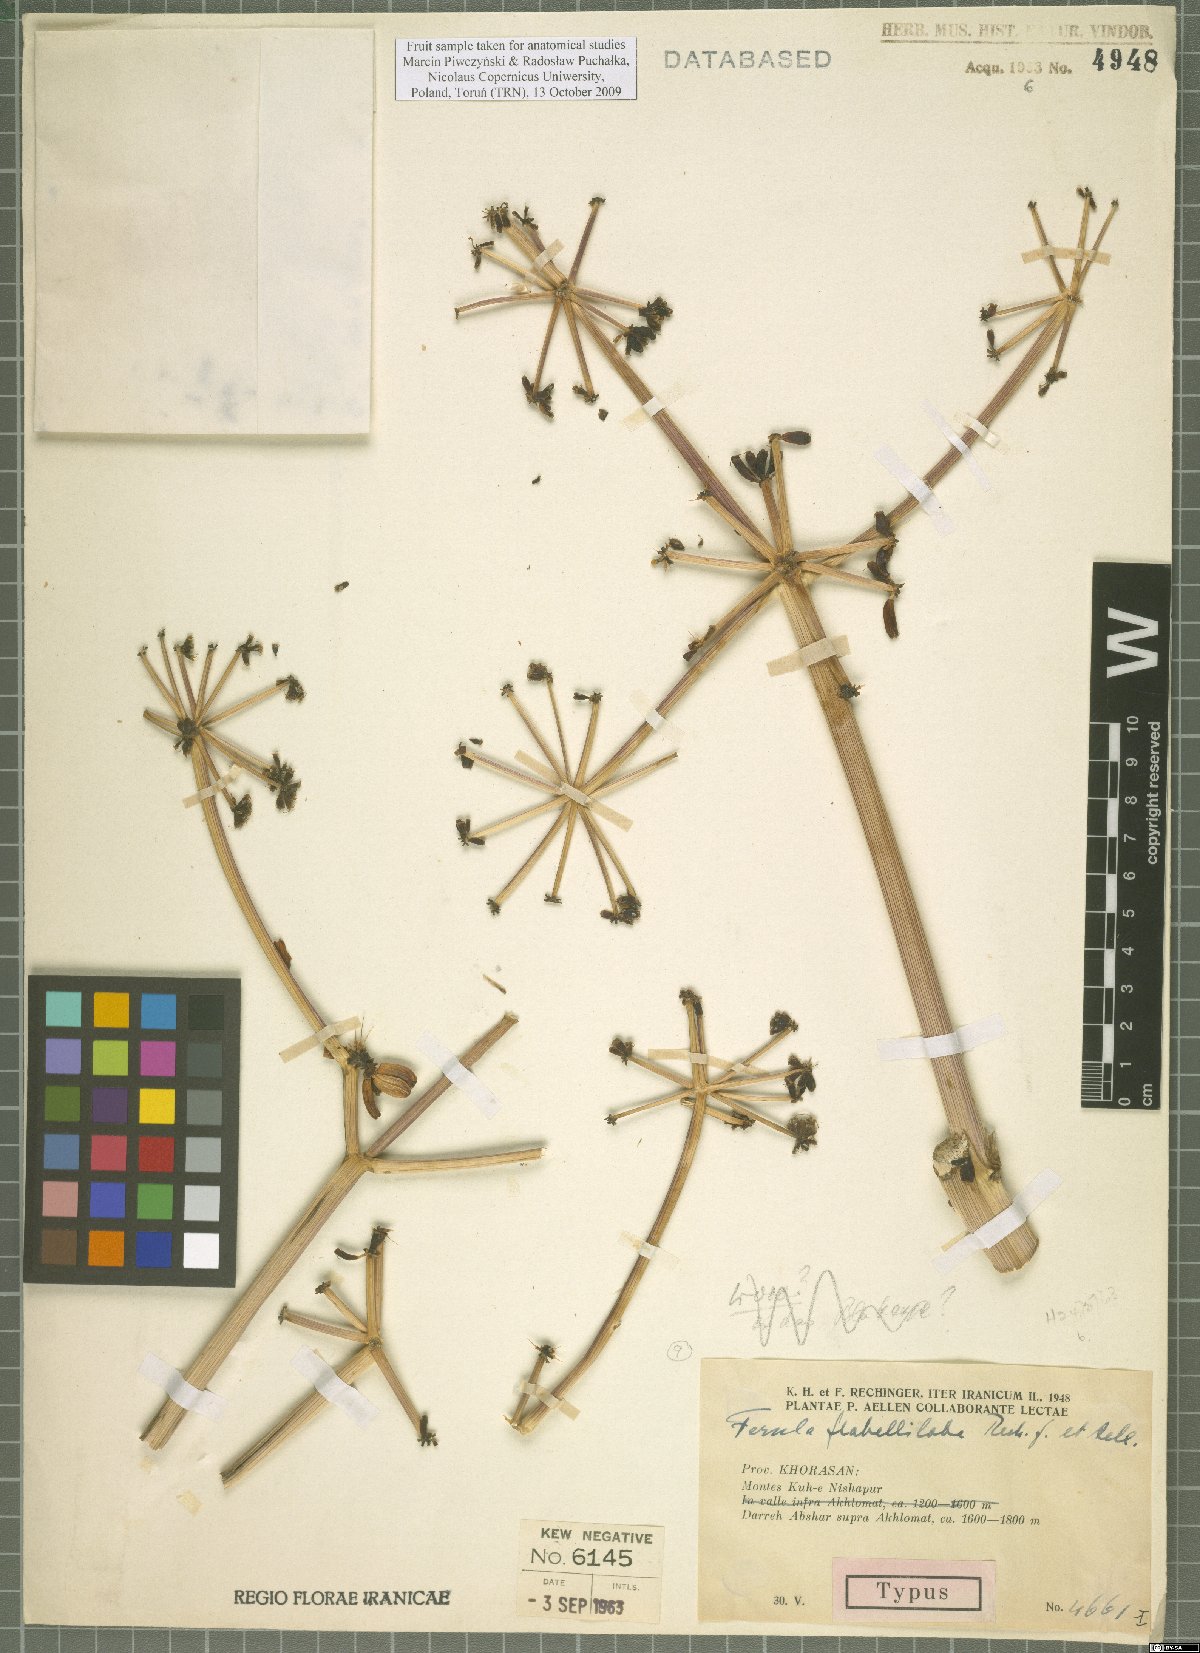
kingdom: Plantae
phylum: Tracheophyta
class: Magnoliopsida
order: Apiales
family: Apiaceae
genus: Ferula
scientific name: Ferula flabelliloba
